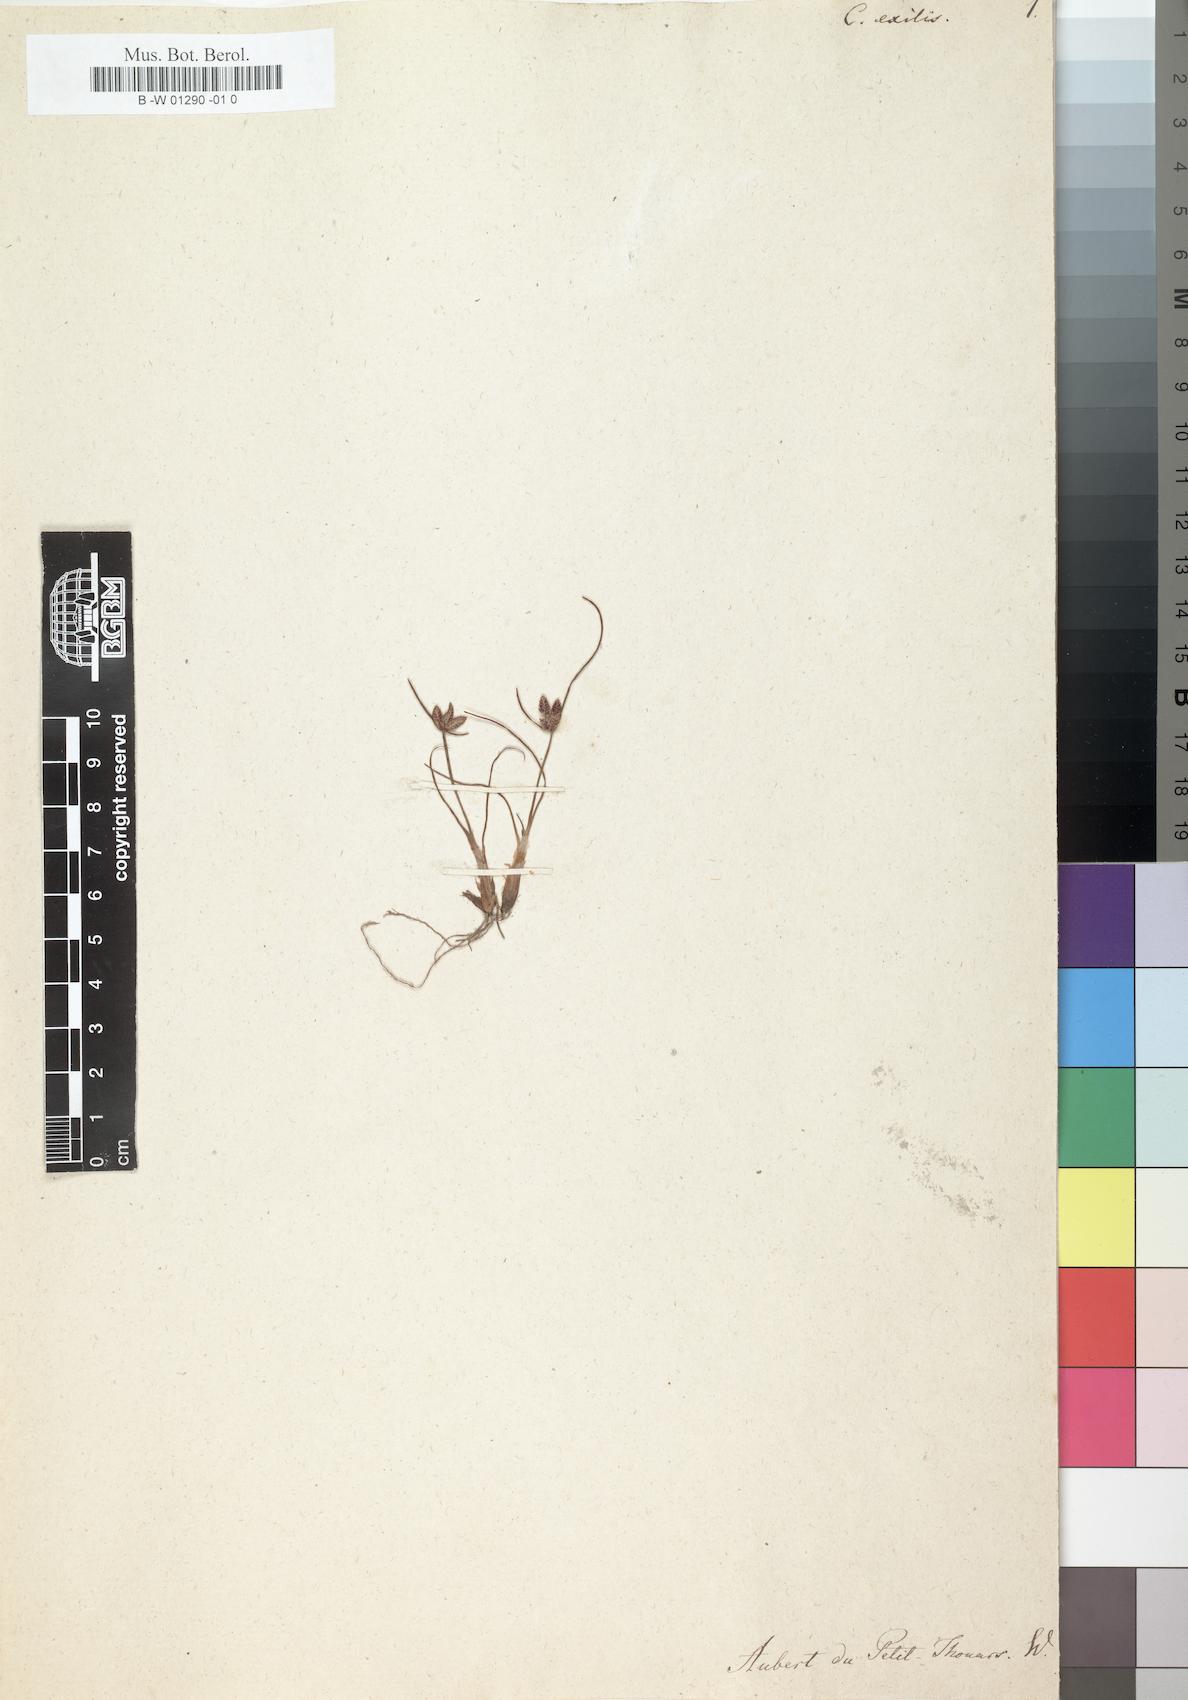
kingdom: Plantae
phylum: Tracheophyta
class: Liliopsida
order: Poales
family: Cyperaceae
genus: Cyperus
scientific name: Cyperus rubicundus
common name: Coco-grass
